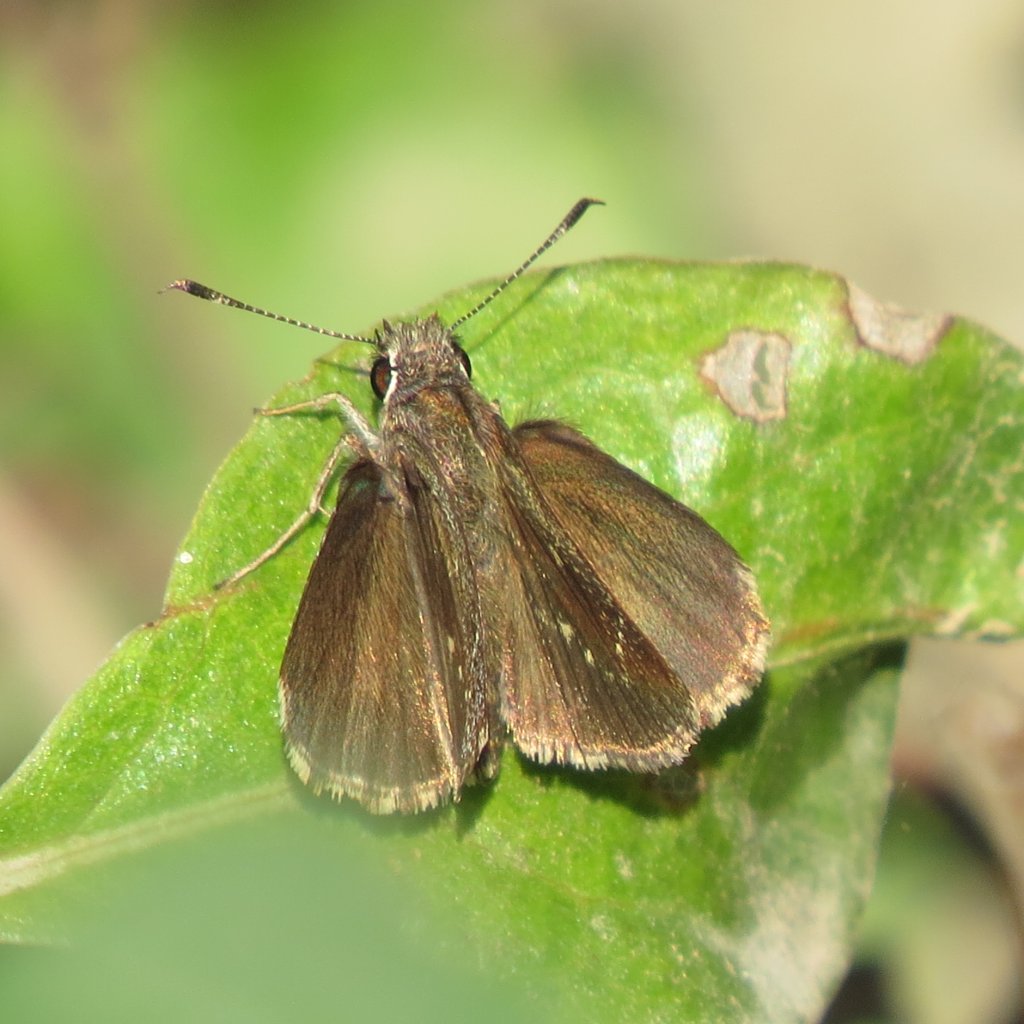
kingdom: Animalia
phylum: Arthropoda
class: Insecta
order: Lepidoptera
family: Hesperiidae
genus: Lerema
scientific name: Lerema accius
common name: Clouded Skipper
